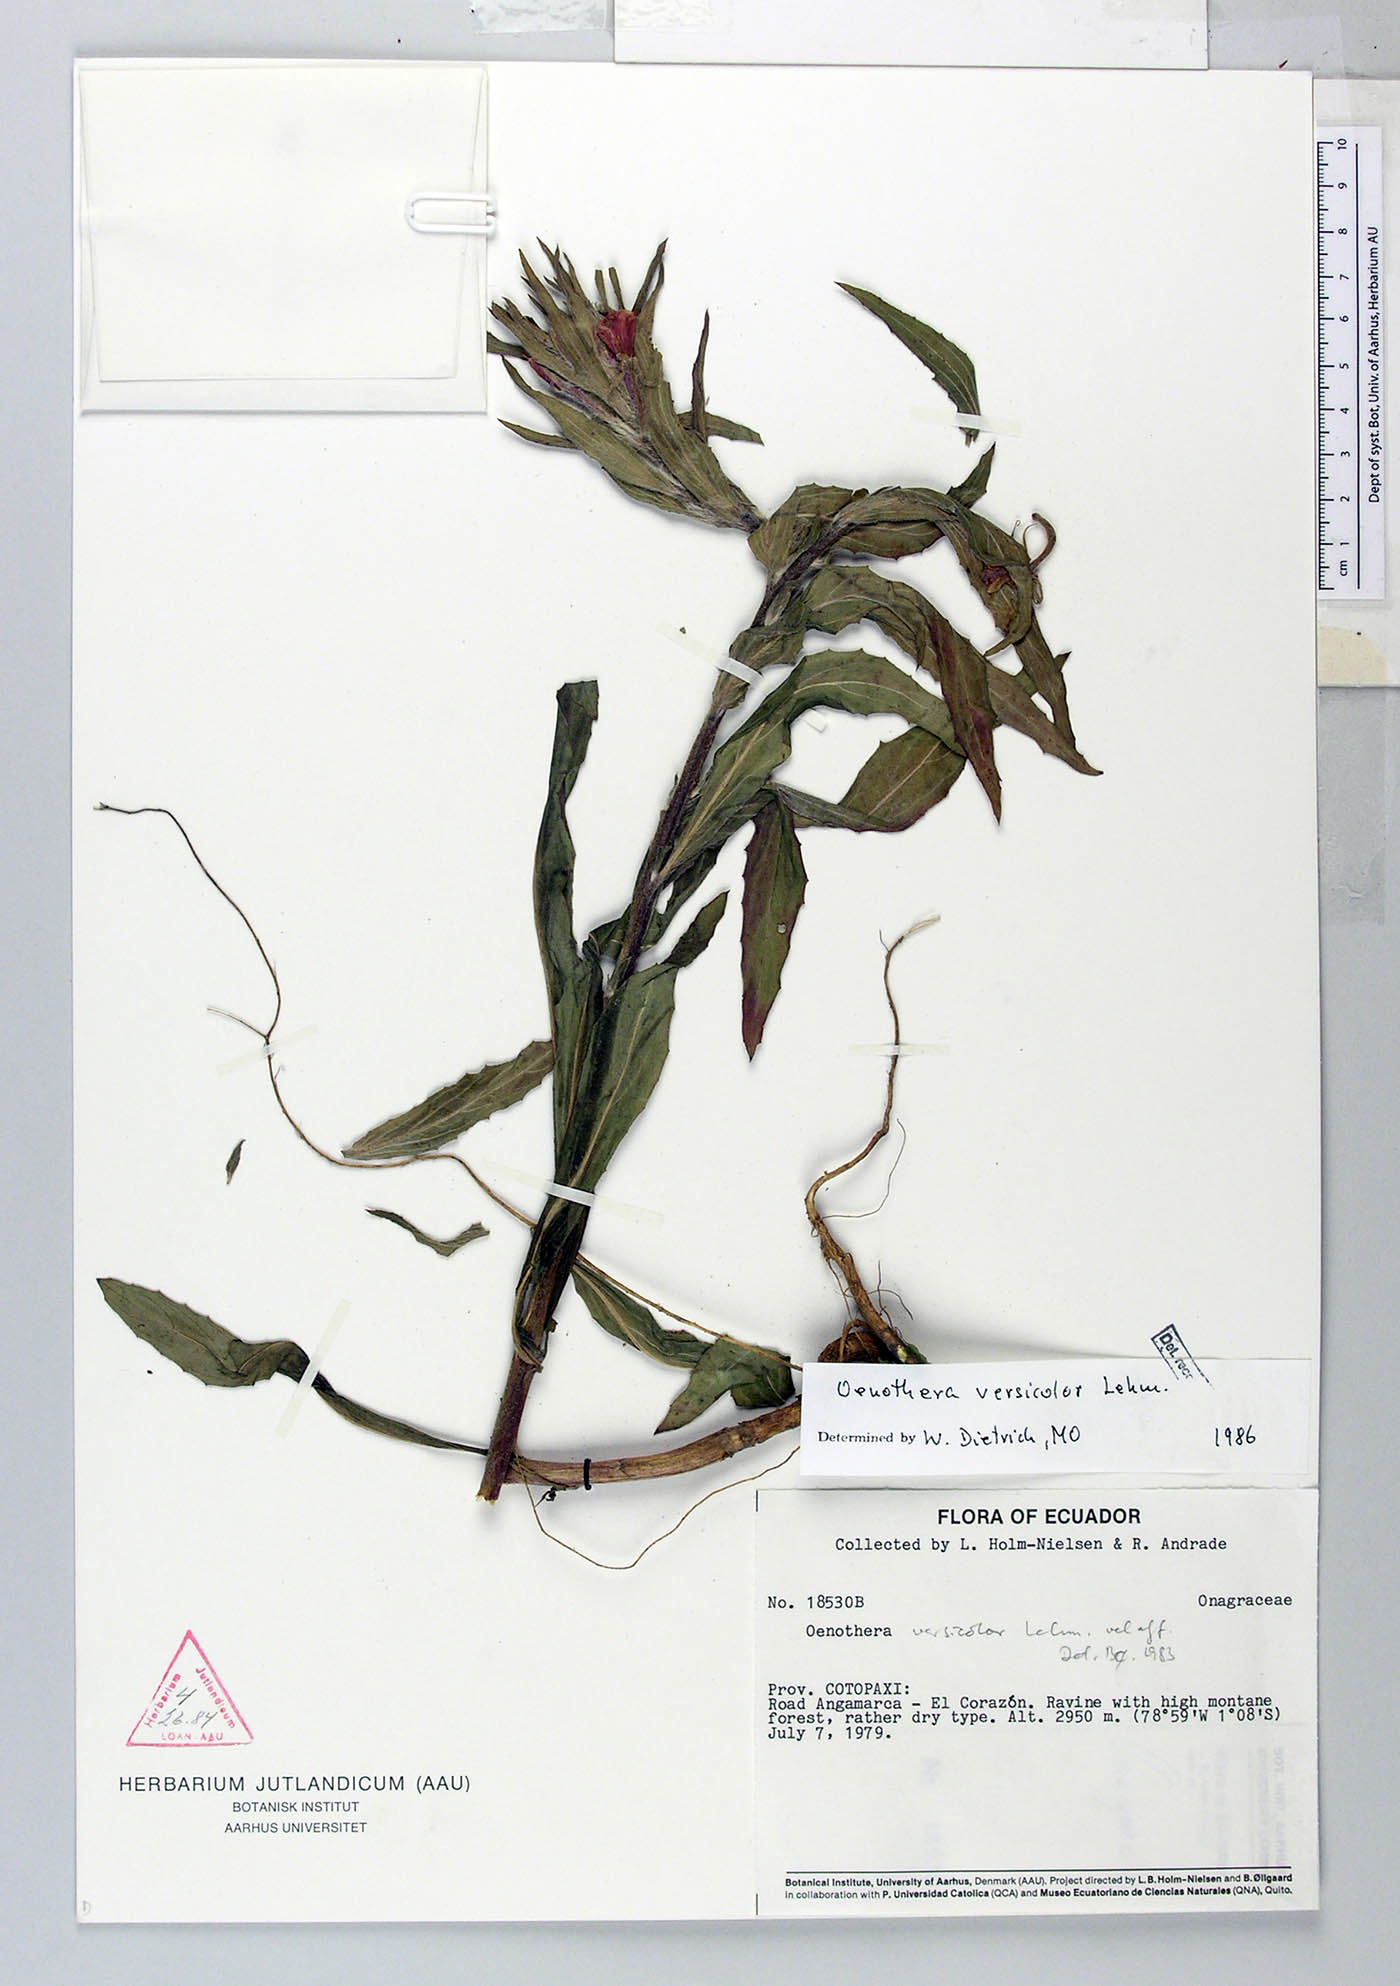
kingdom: Plantae
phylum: Tracheophyta
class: Magnoliopsida
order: Myrtales
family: Onagraceae
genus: Oenothera
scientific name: Oenothera versicolor
